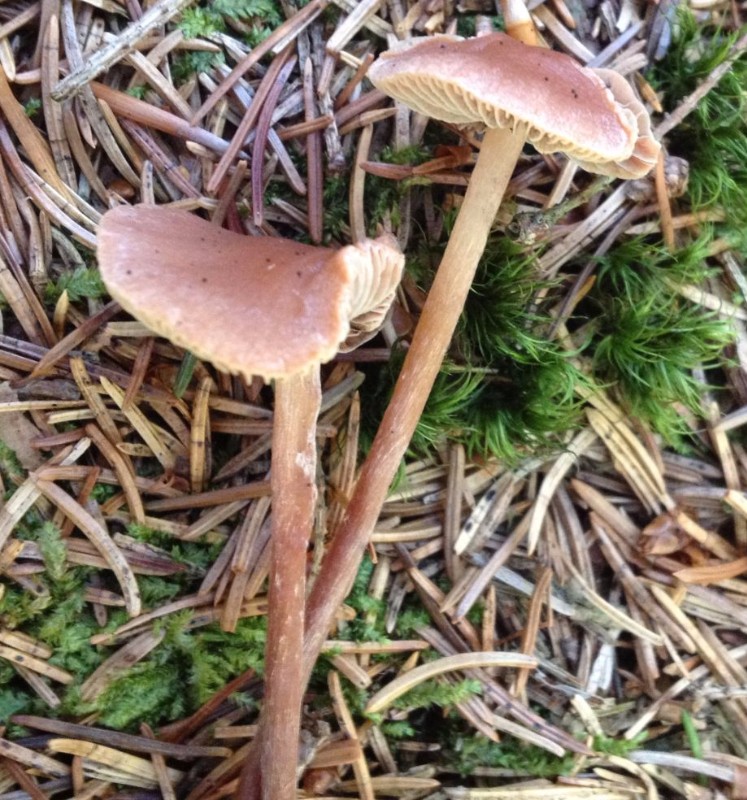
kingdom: Fungi
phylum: Basidiomycota
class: Agaricomycetes
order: Agaricales
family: Strophariaceae
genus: Bogbodia
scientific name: Bogbodia uda
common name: tørve-svovlhat
